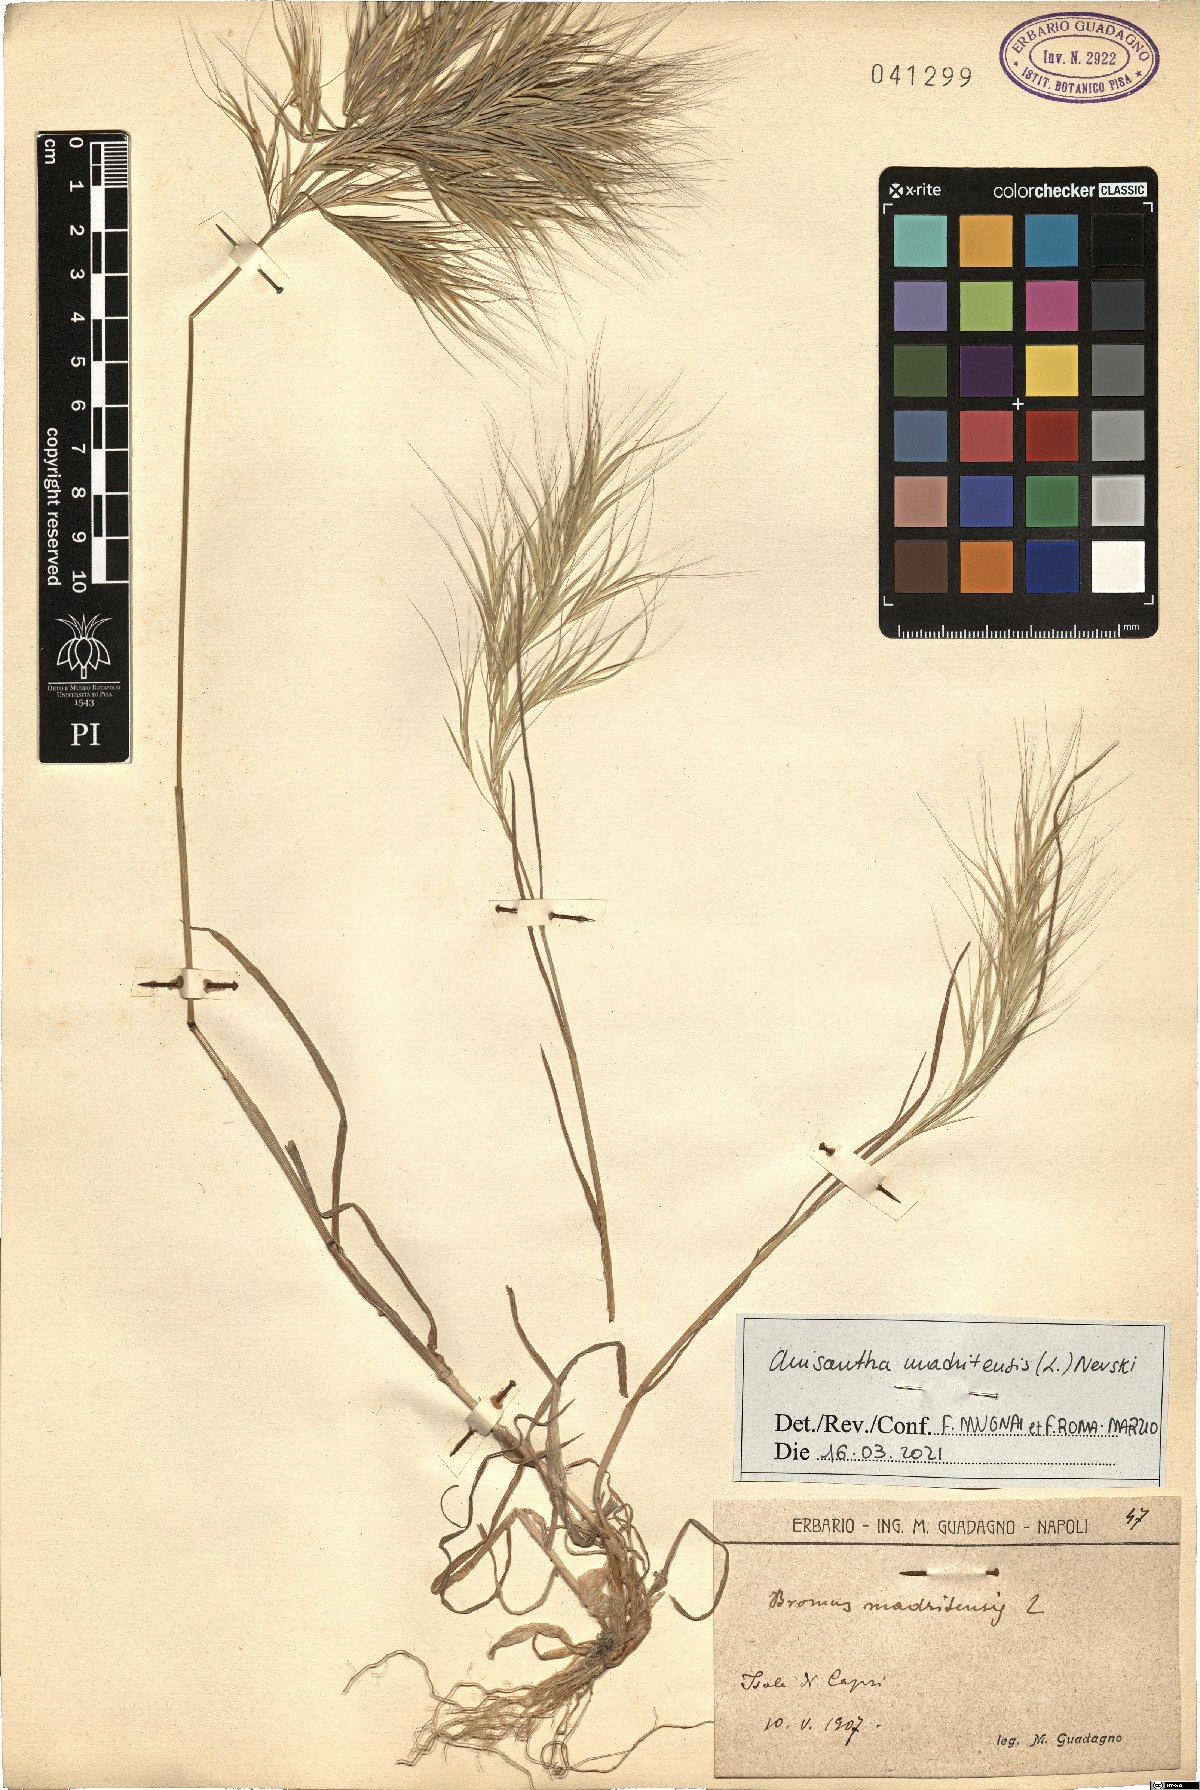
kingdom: Plantae
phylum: Tracheophyta
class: Liliopsida
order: Poales
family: Poaceae
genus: Bromus
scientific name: Bromus madritensis
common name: Compact brome
